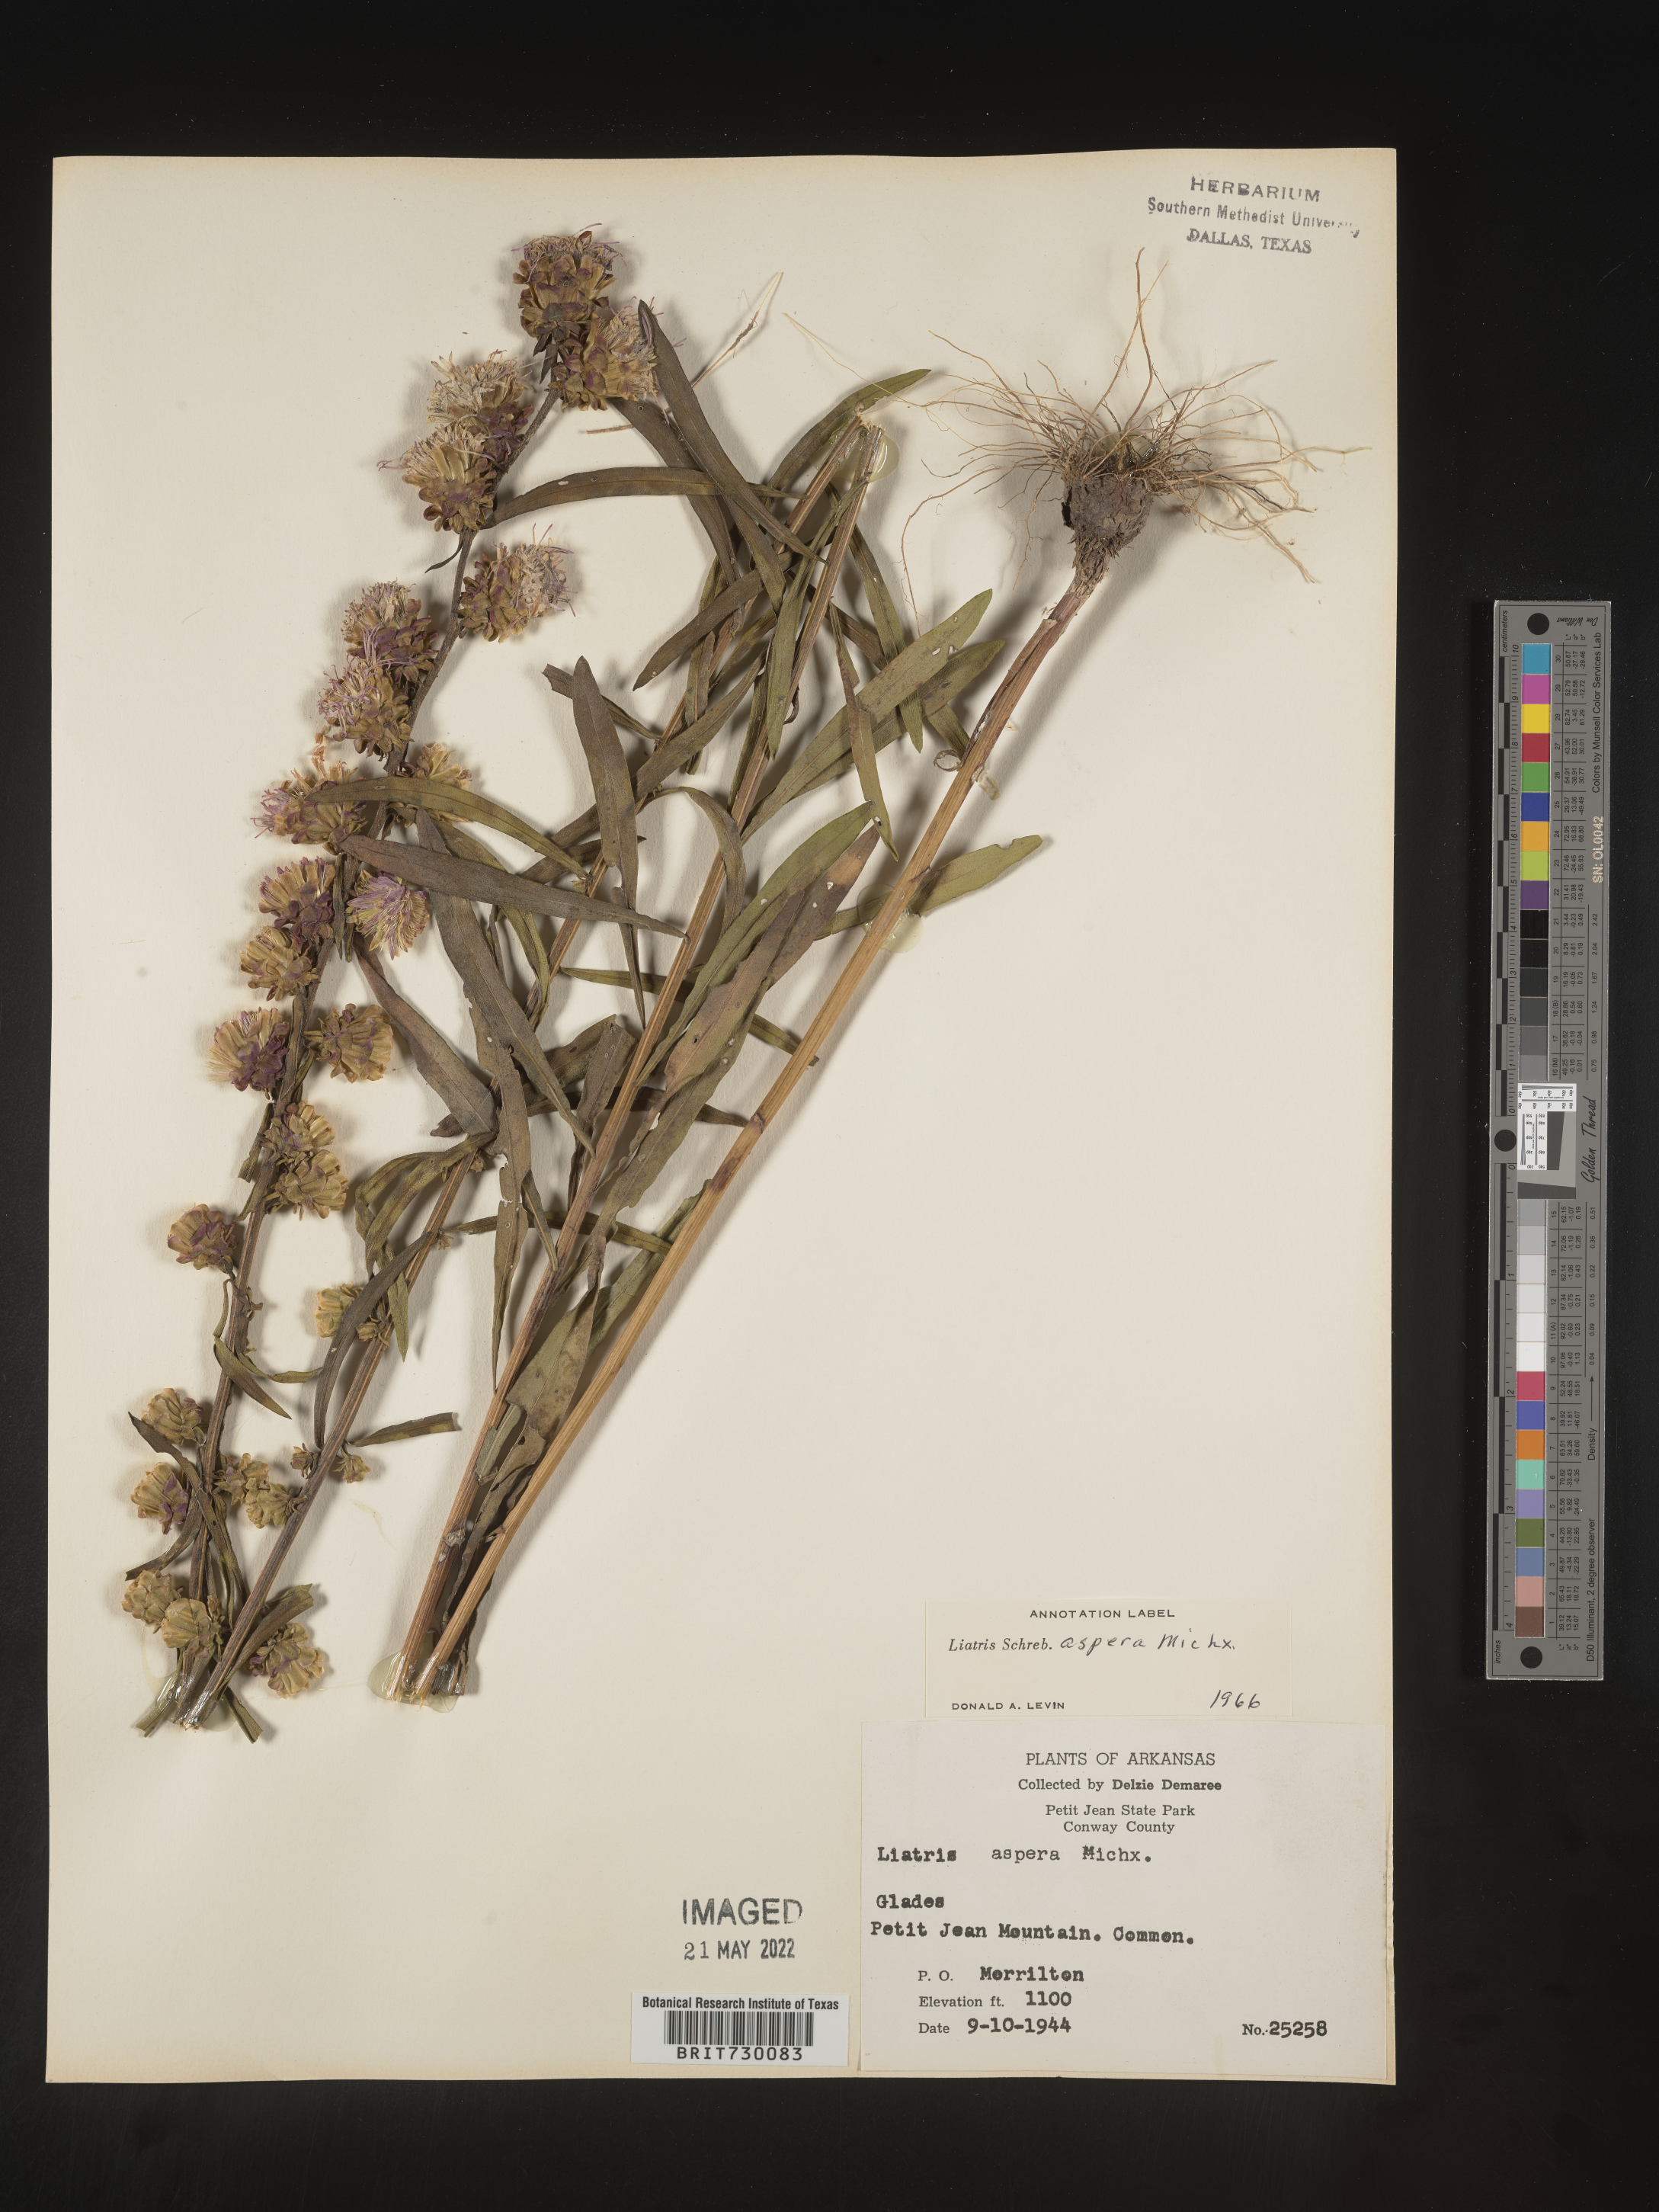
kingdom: Plantae
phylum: Tracheophyta
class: Magnoliopsida
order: Asterales
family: Asteraceae
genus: Liatris
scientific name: Liatris aspera
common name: Lacerate blazing-star
